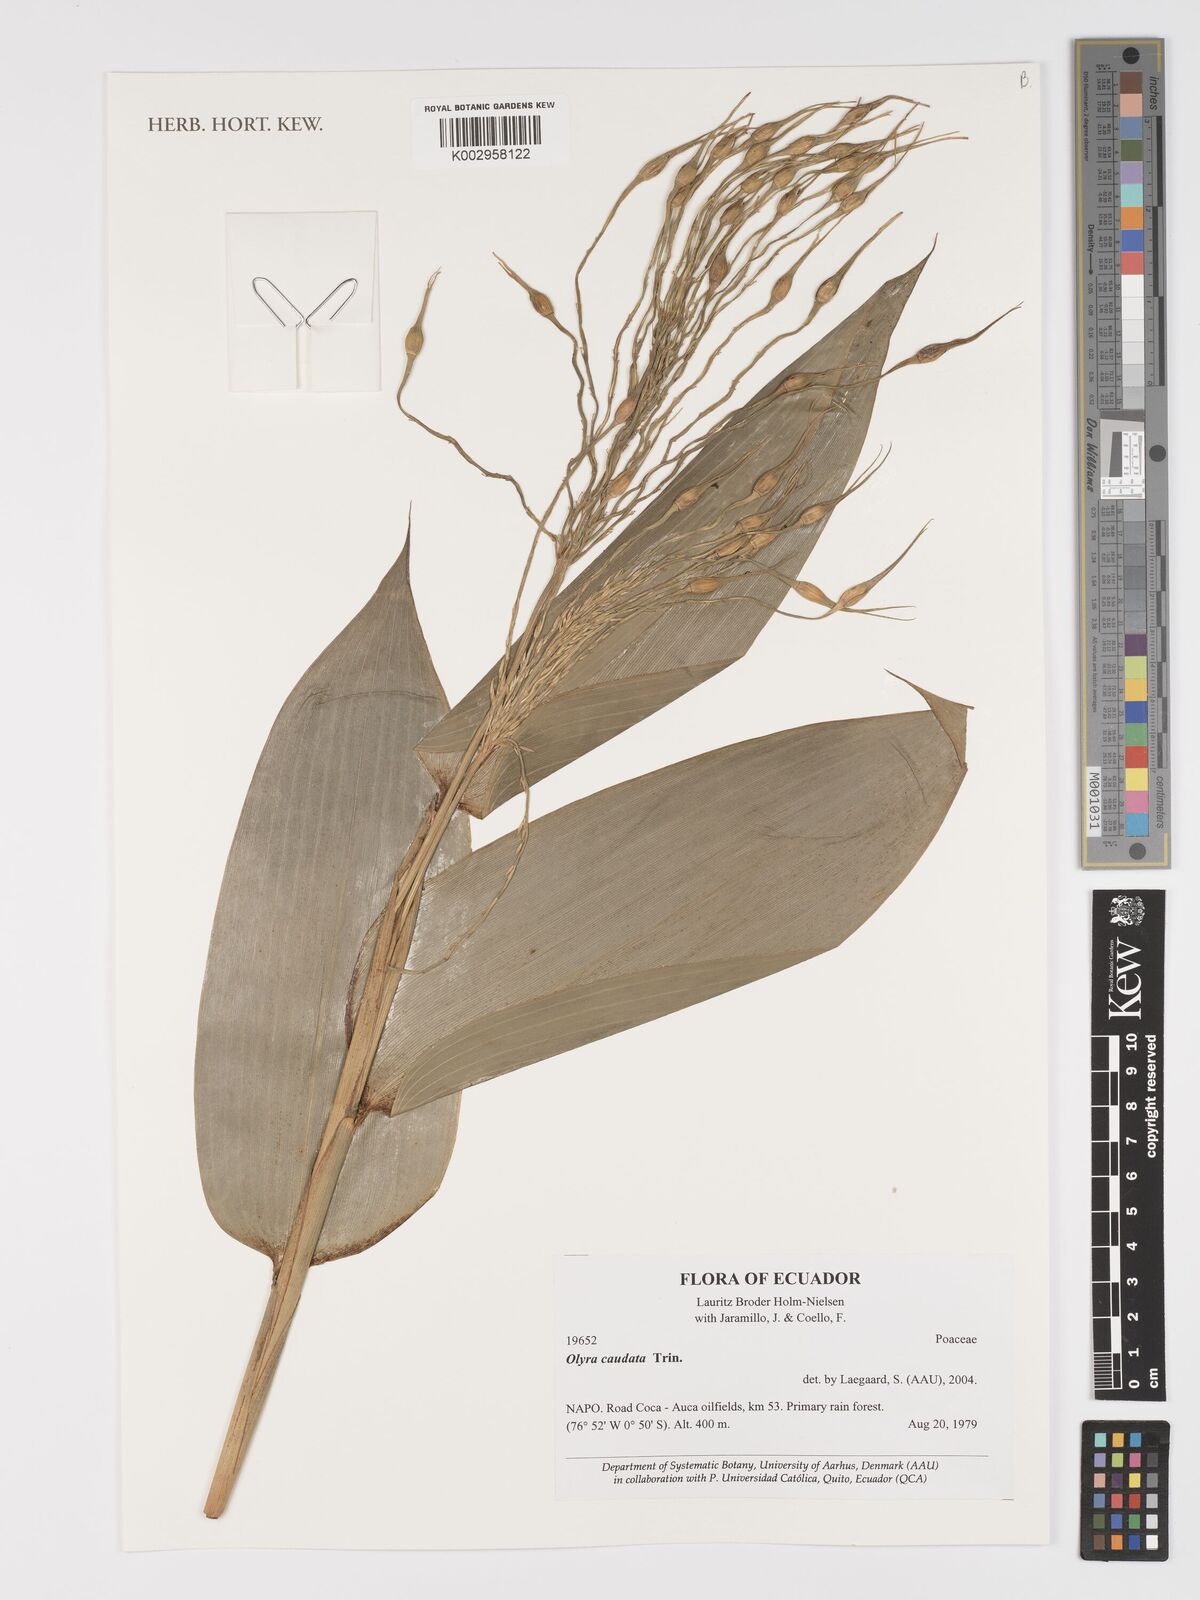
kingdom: Plantae
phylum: Tracheophyta
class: Liliopsida
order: Poales
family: Poaceae
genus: Olyra
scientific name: Olyra caudata
